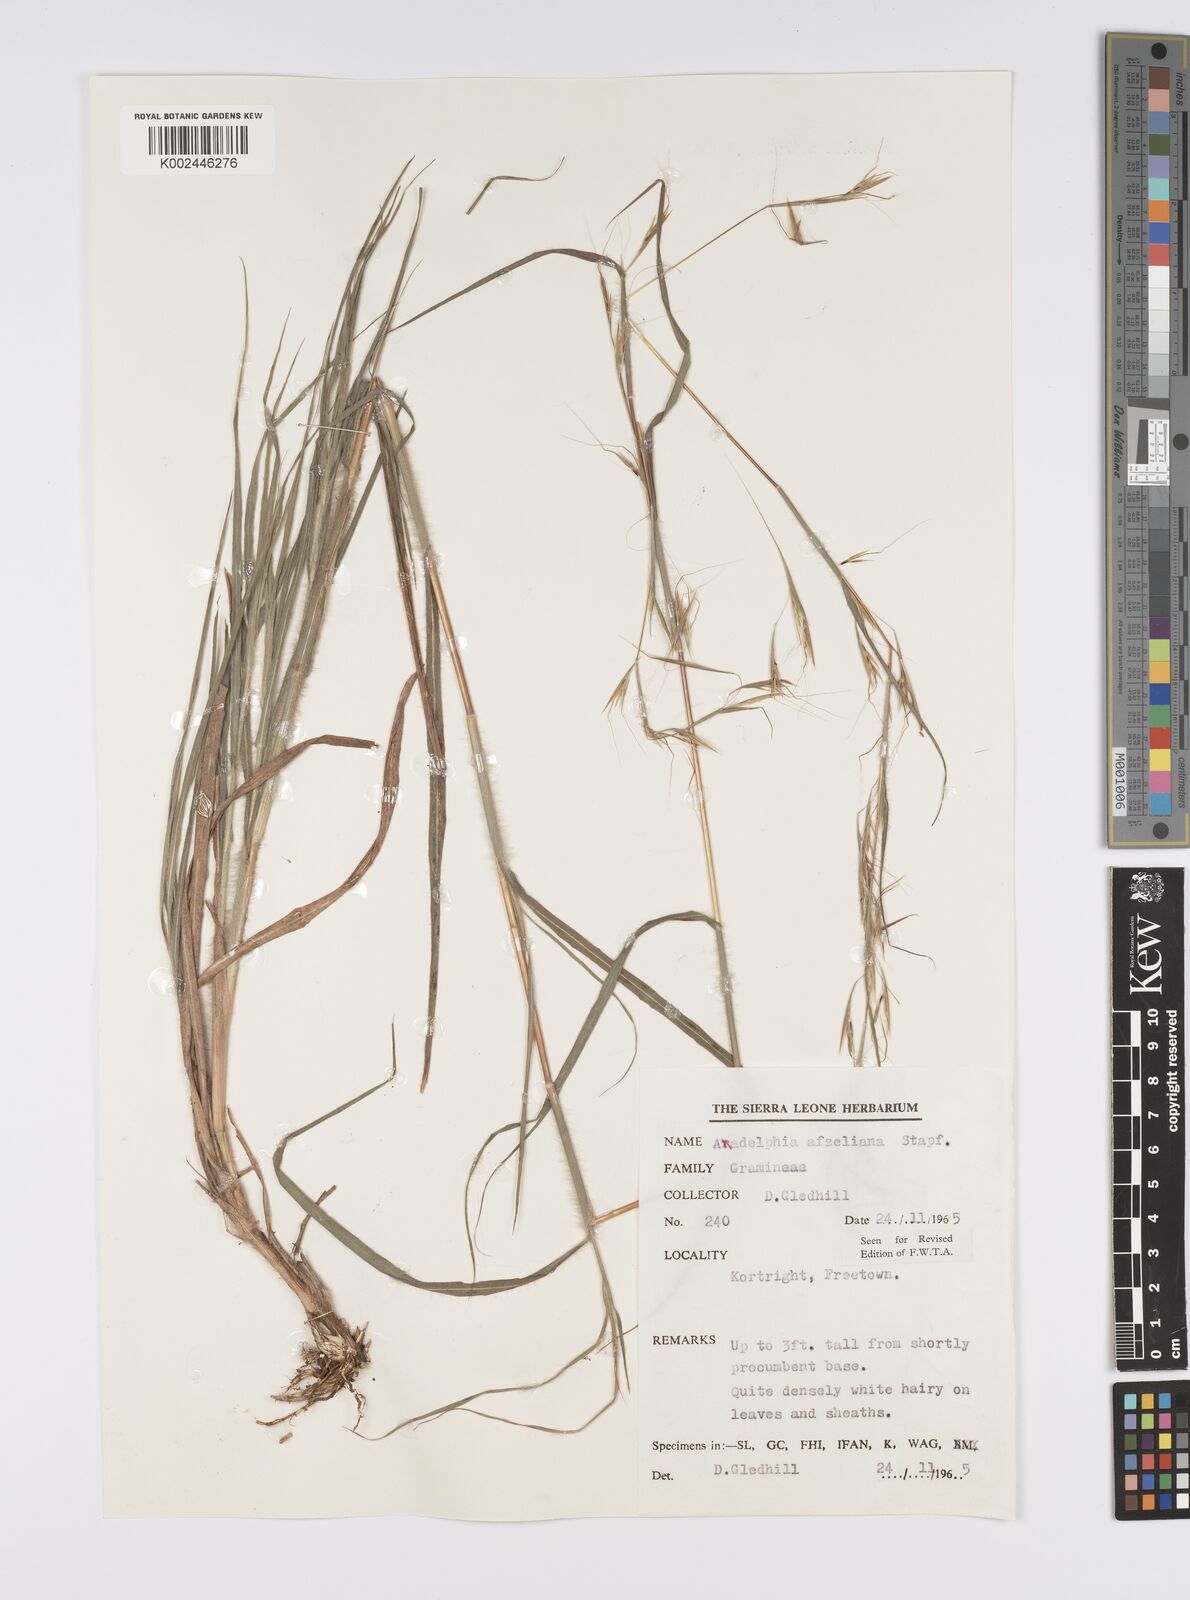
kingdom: Plantae
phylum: Tracheophyta
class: Liliopsida
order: Poales
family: Poaceae
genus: Anadelphia
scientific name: Anadelphia afzeliana
